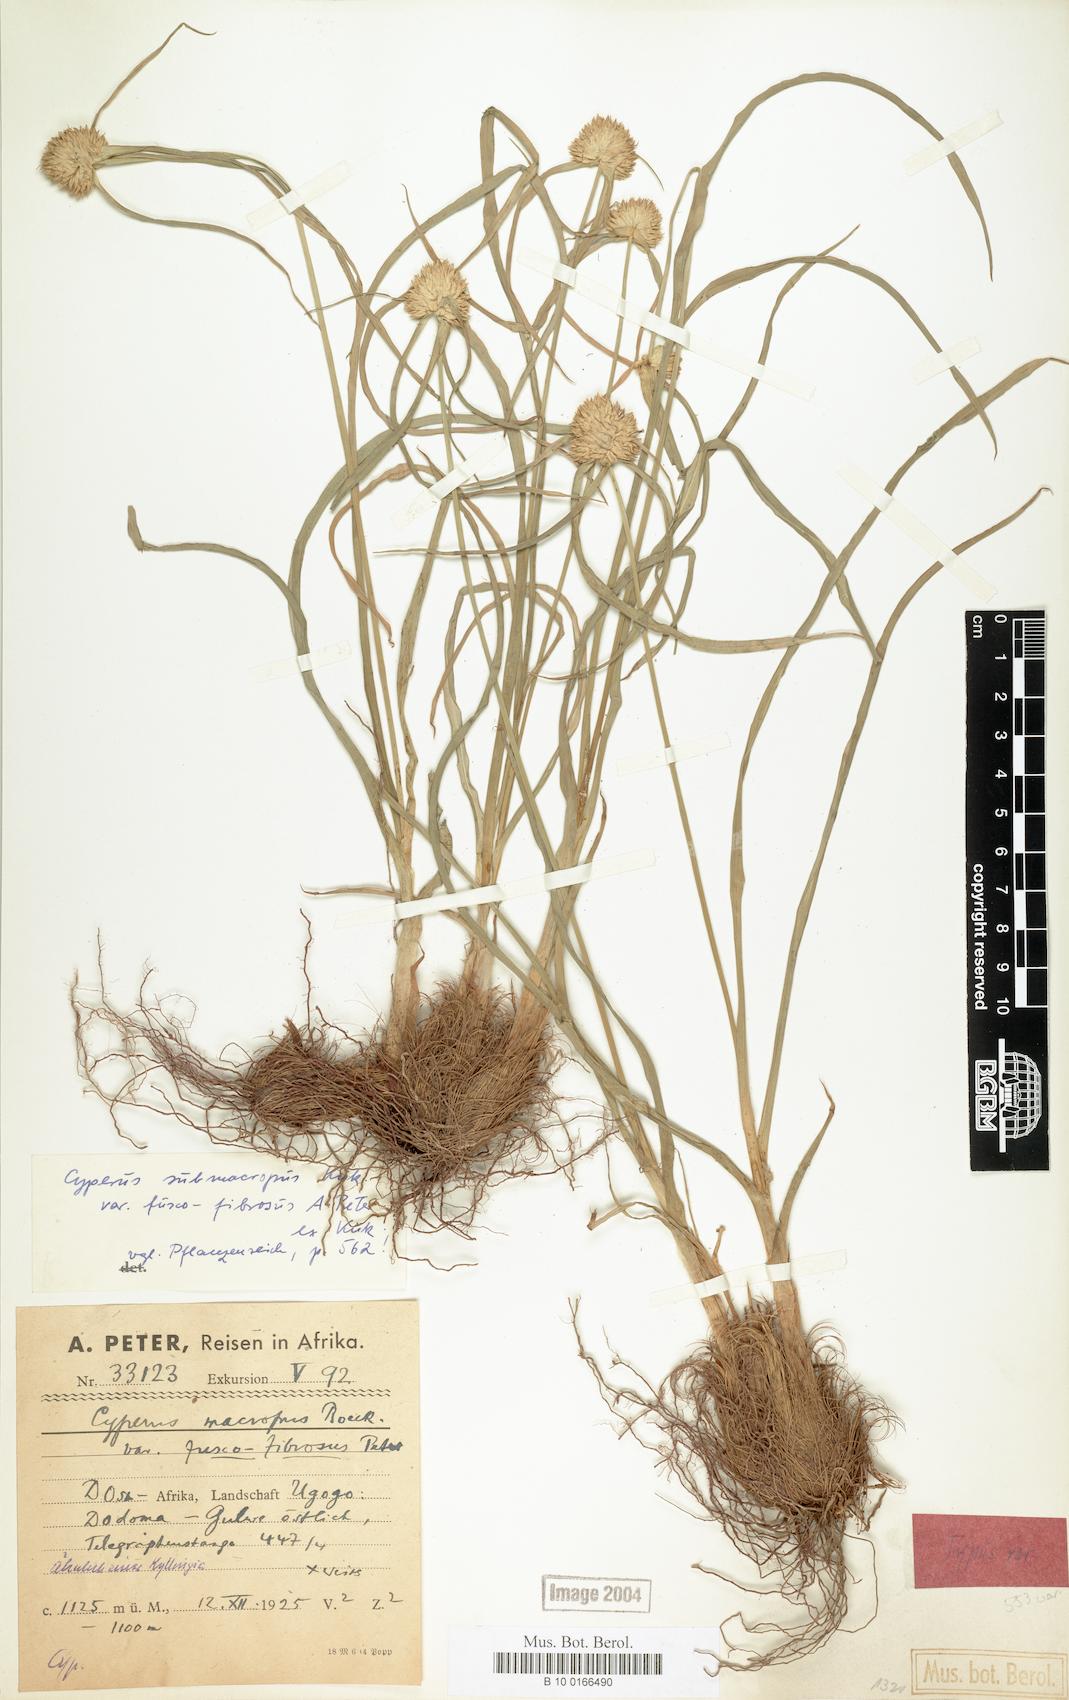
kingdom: Plantae
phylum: Tracheophyta
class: Liliopsida
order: Poales
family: Cyperaceae
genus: Cyperus
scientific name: Cyperus mollipes
